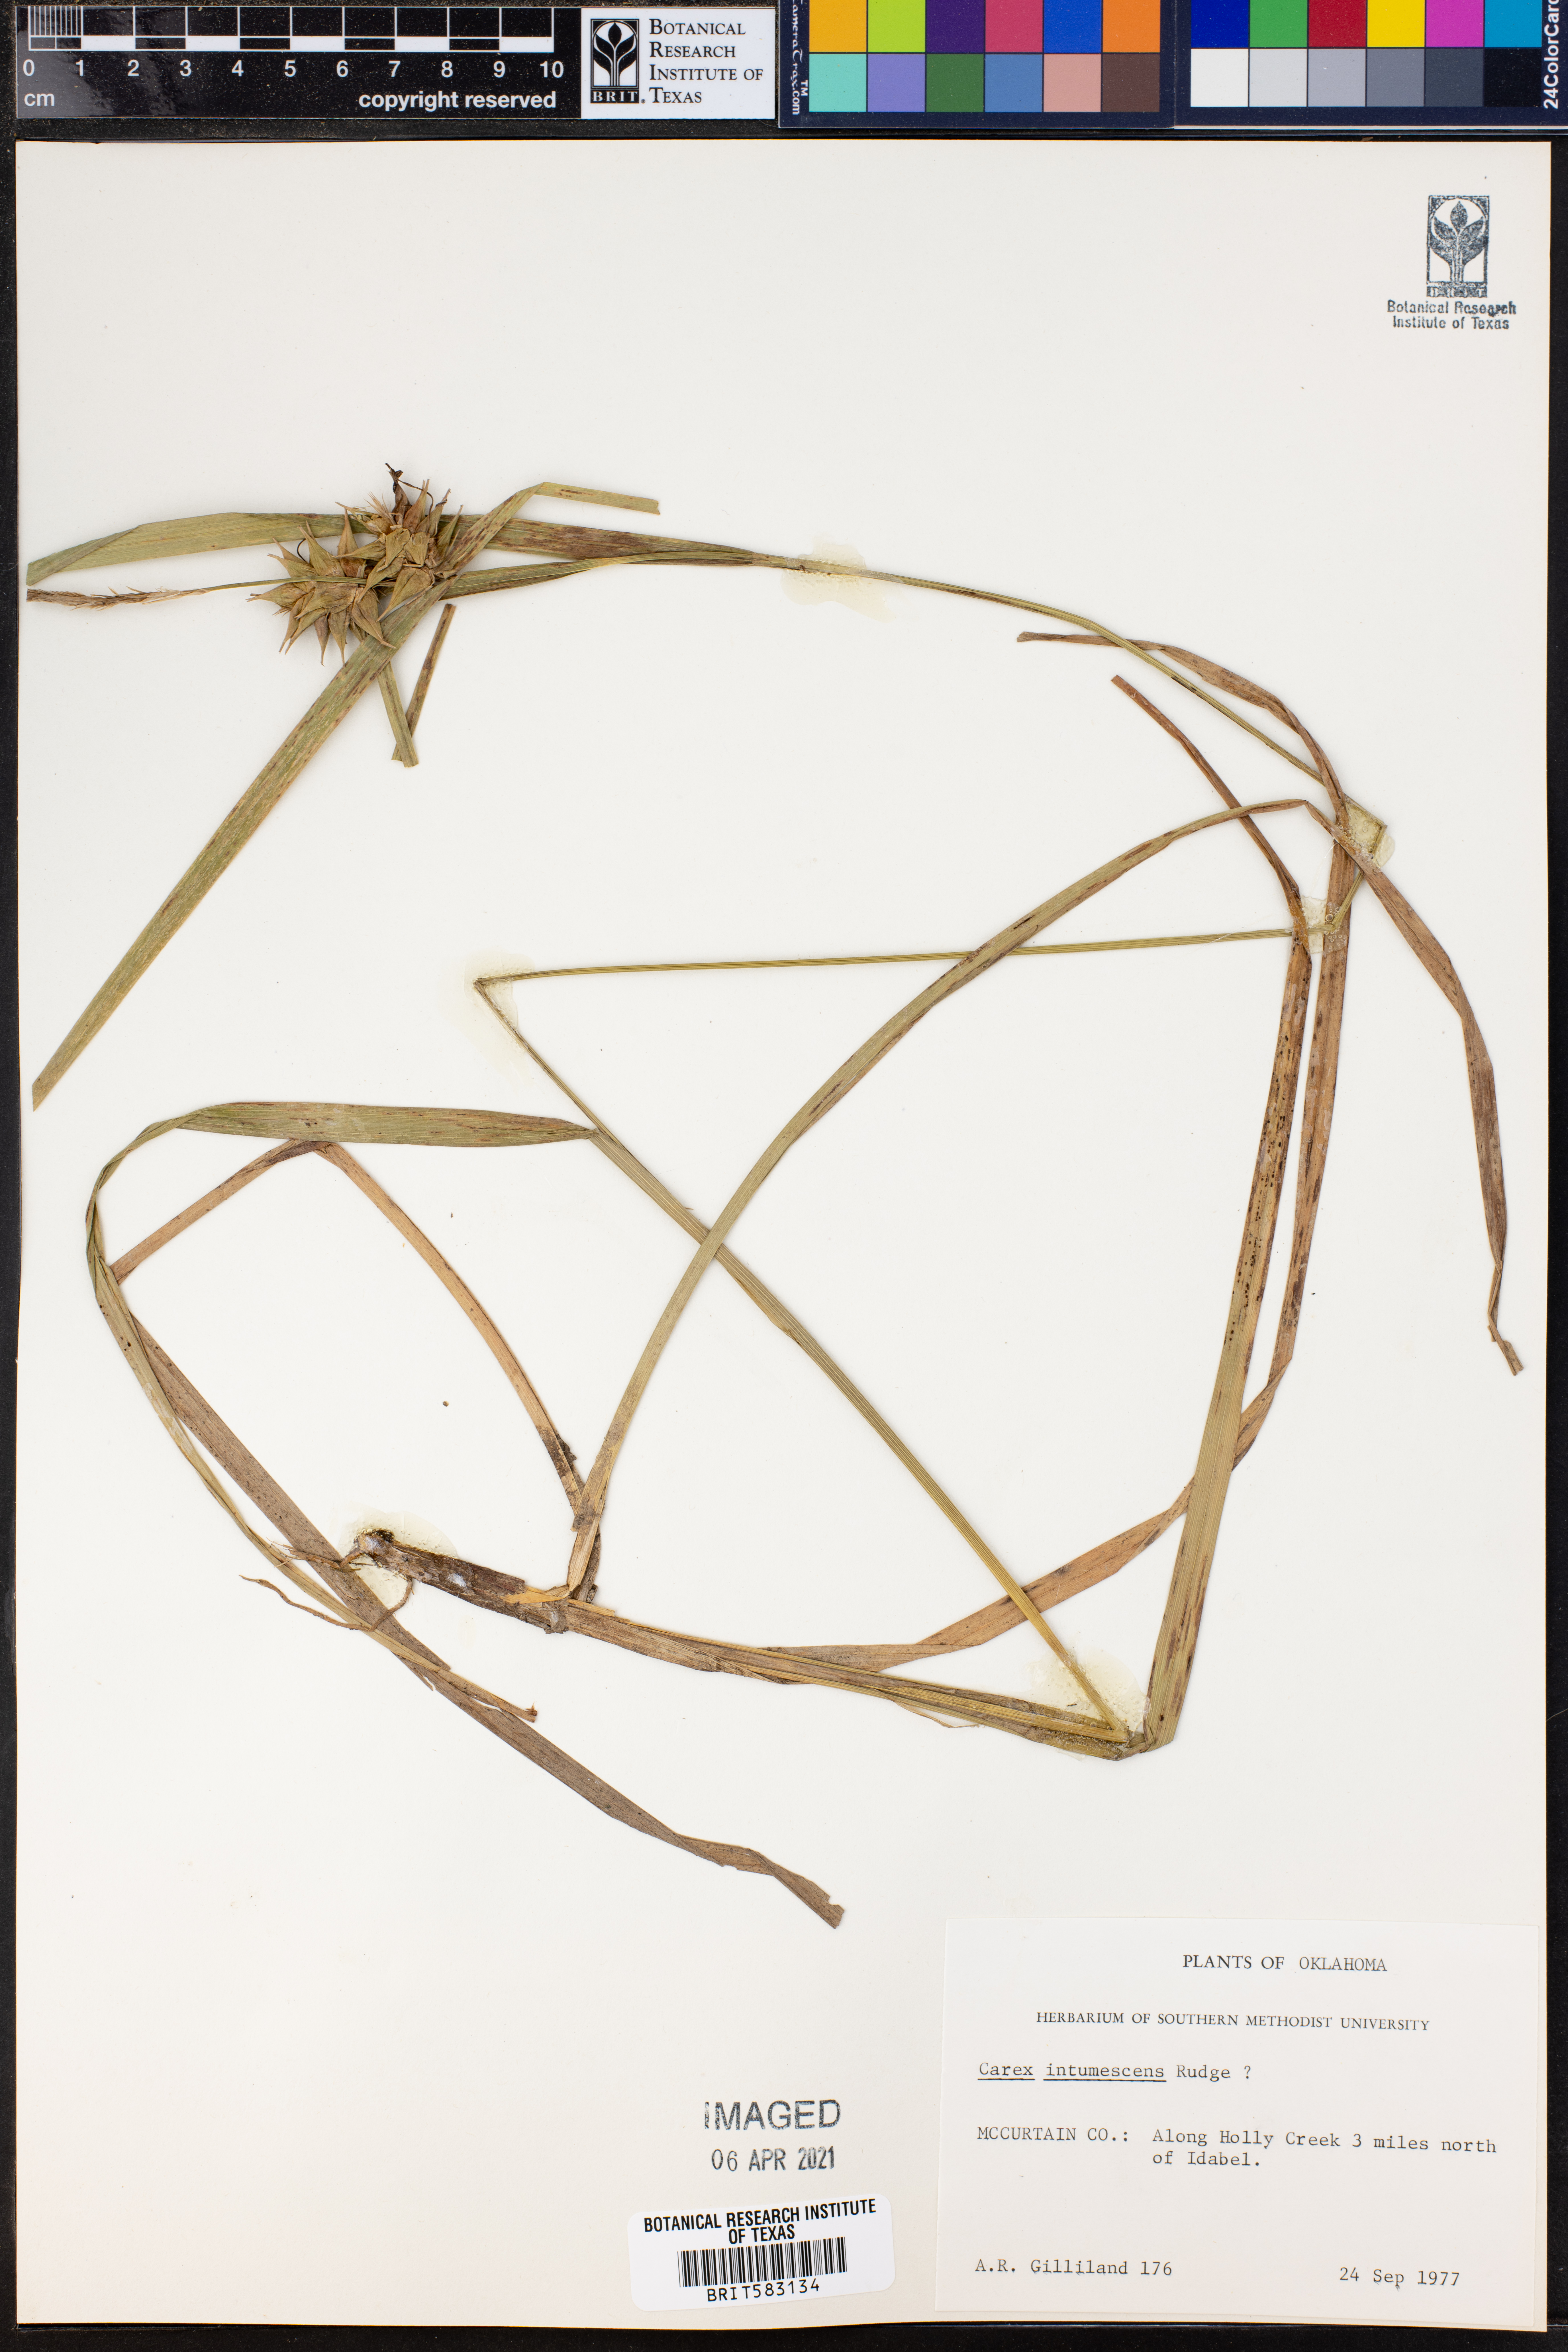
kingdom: Plantae
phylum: Tracheophyta
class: Liliopsida
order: Poales
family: Cyperaceae
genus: Carex
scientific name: Carex intumescens
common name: Greater bladder sedge
